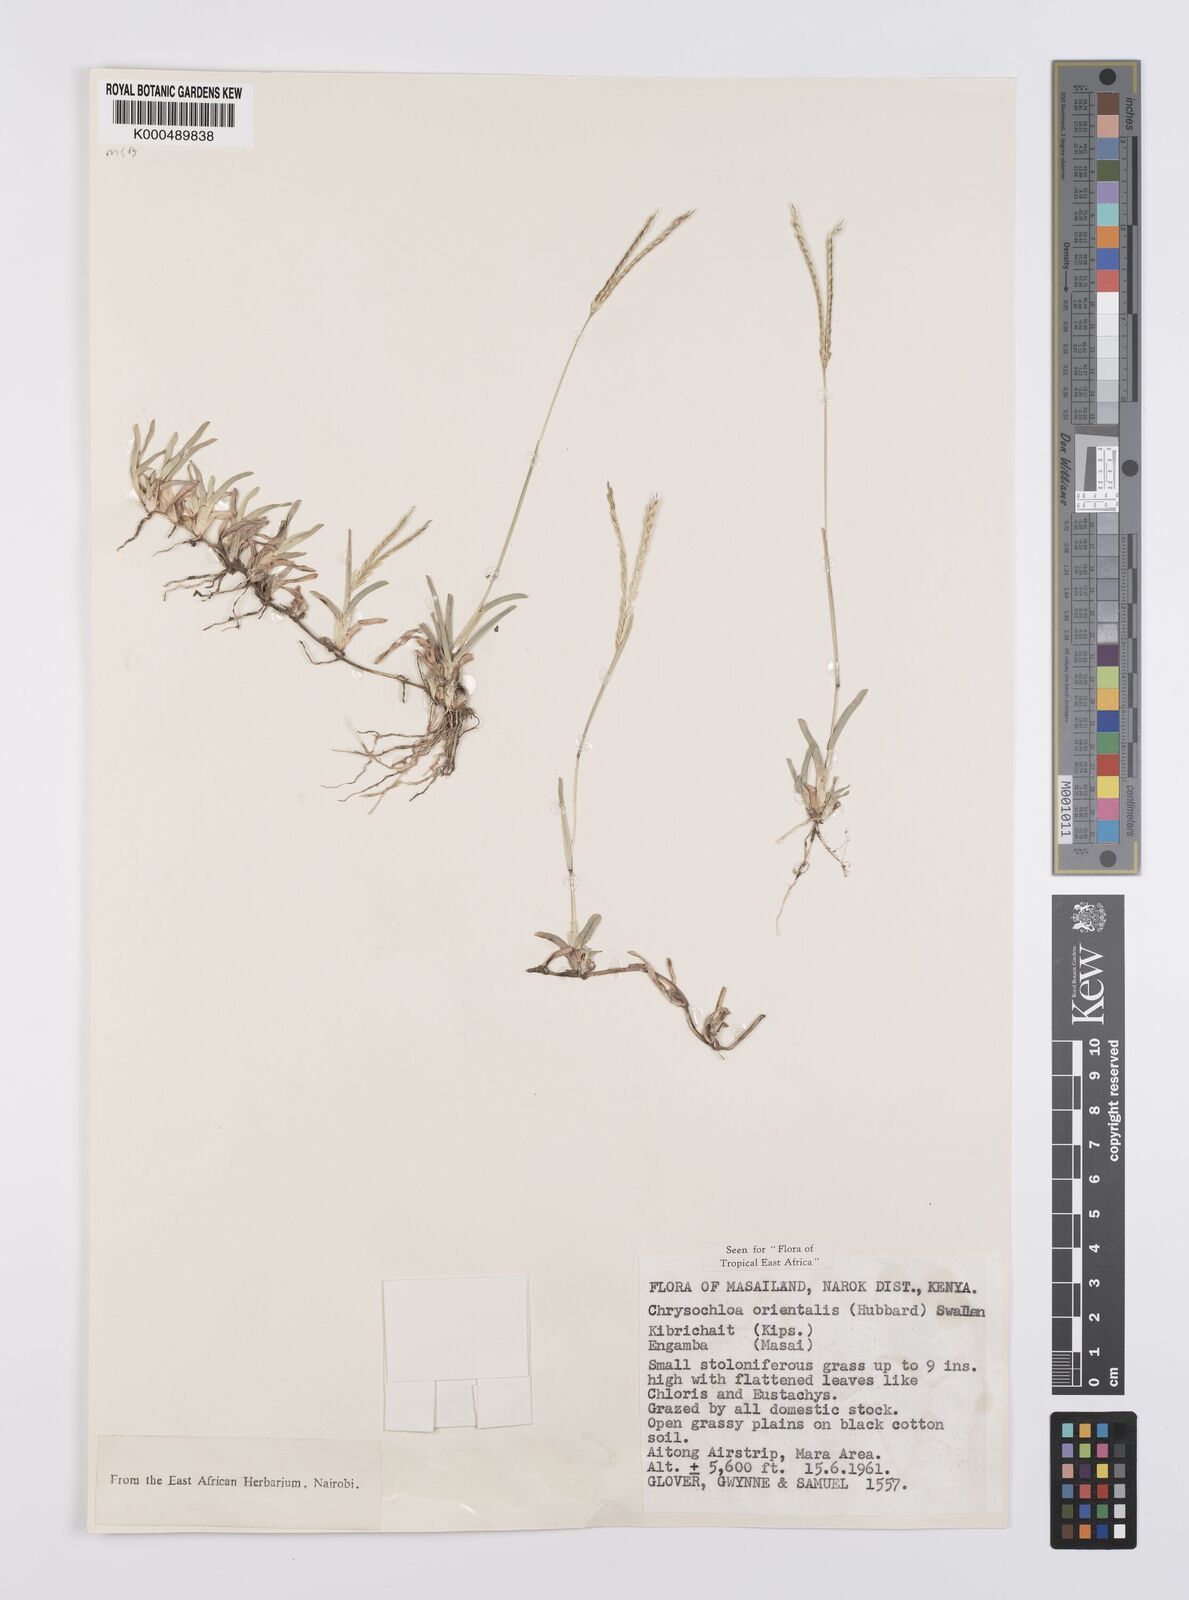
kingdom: Plantae
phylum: Tracheophyta
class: Liliopsida
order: Poales
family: Poaceae
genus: Chrysochloa
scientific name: Chrysochloa
